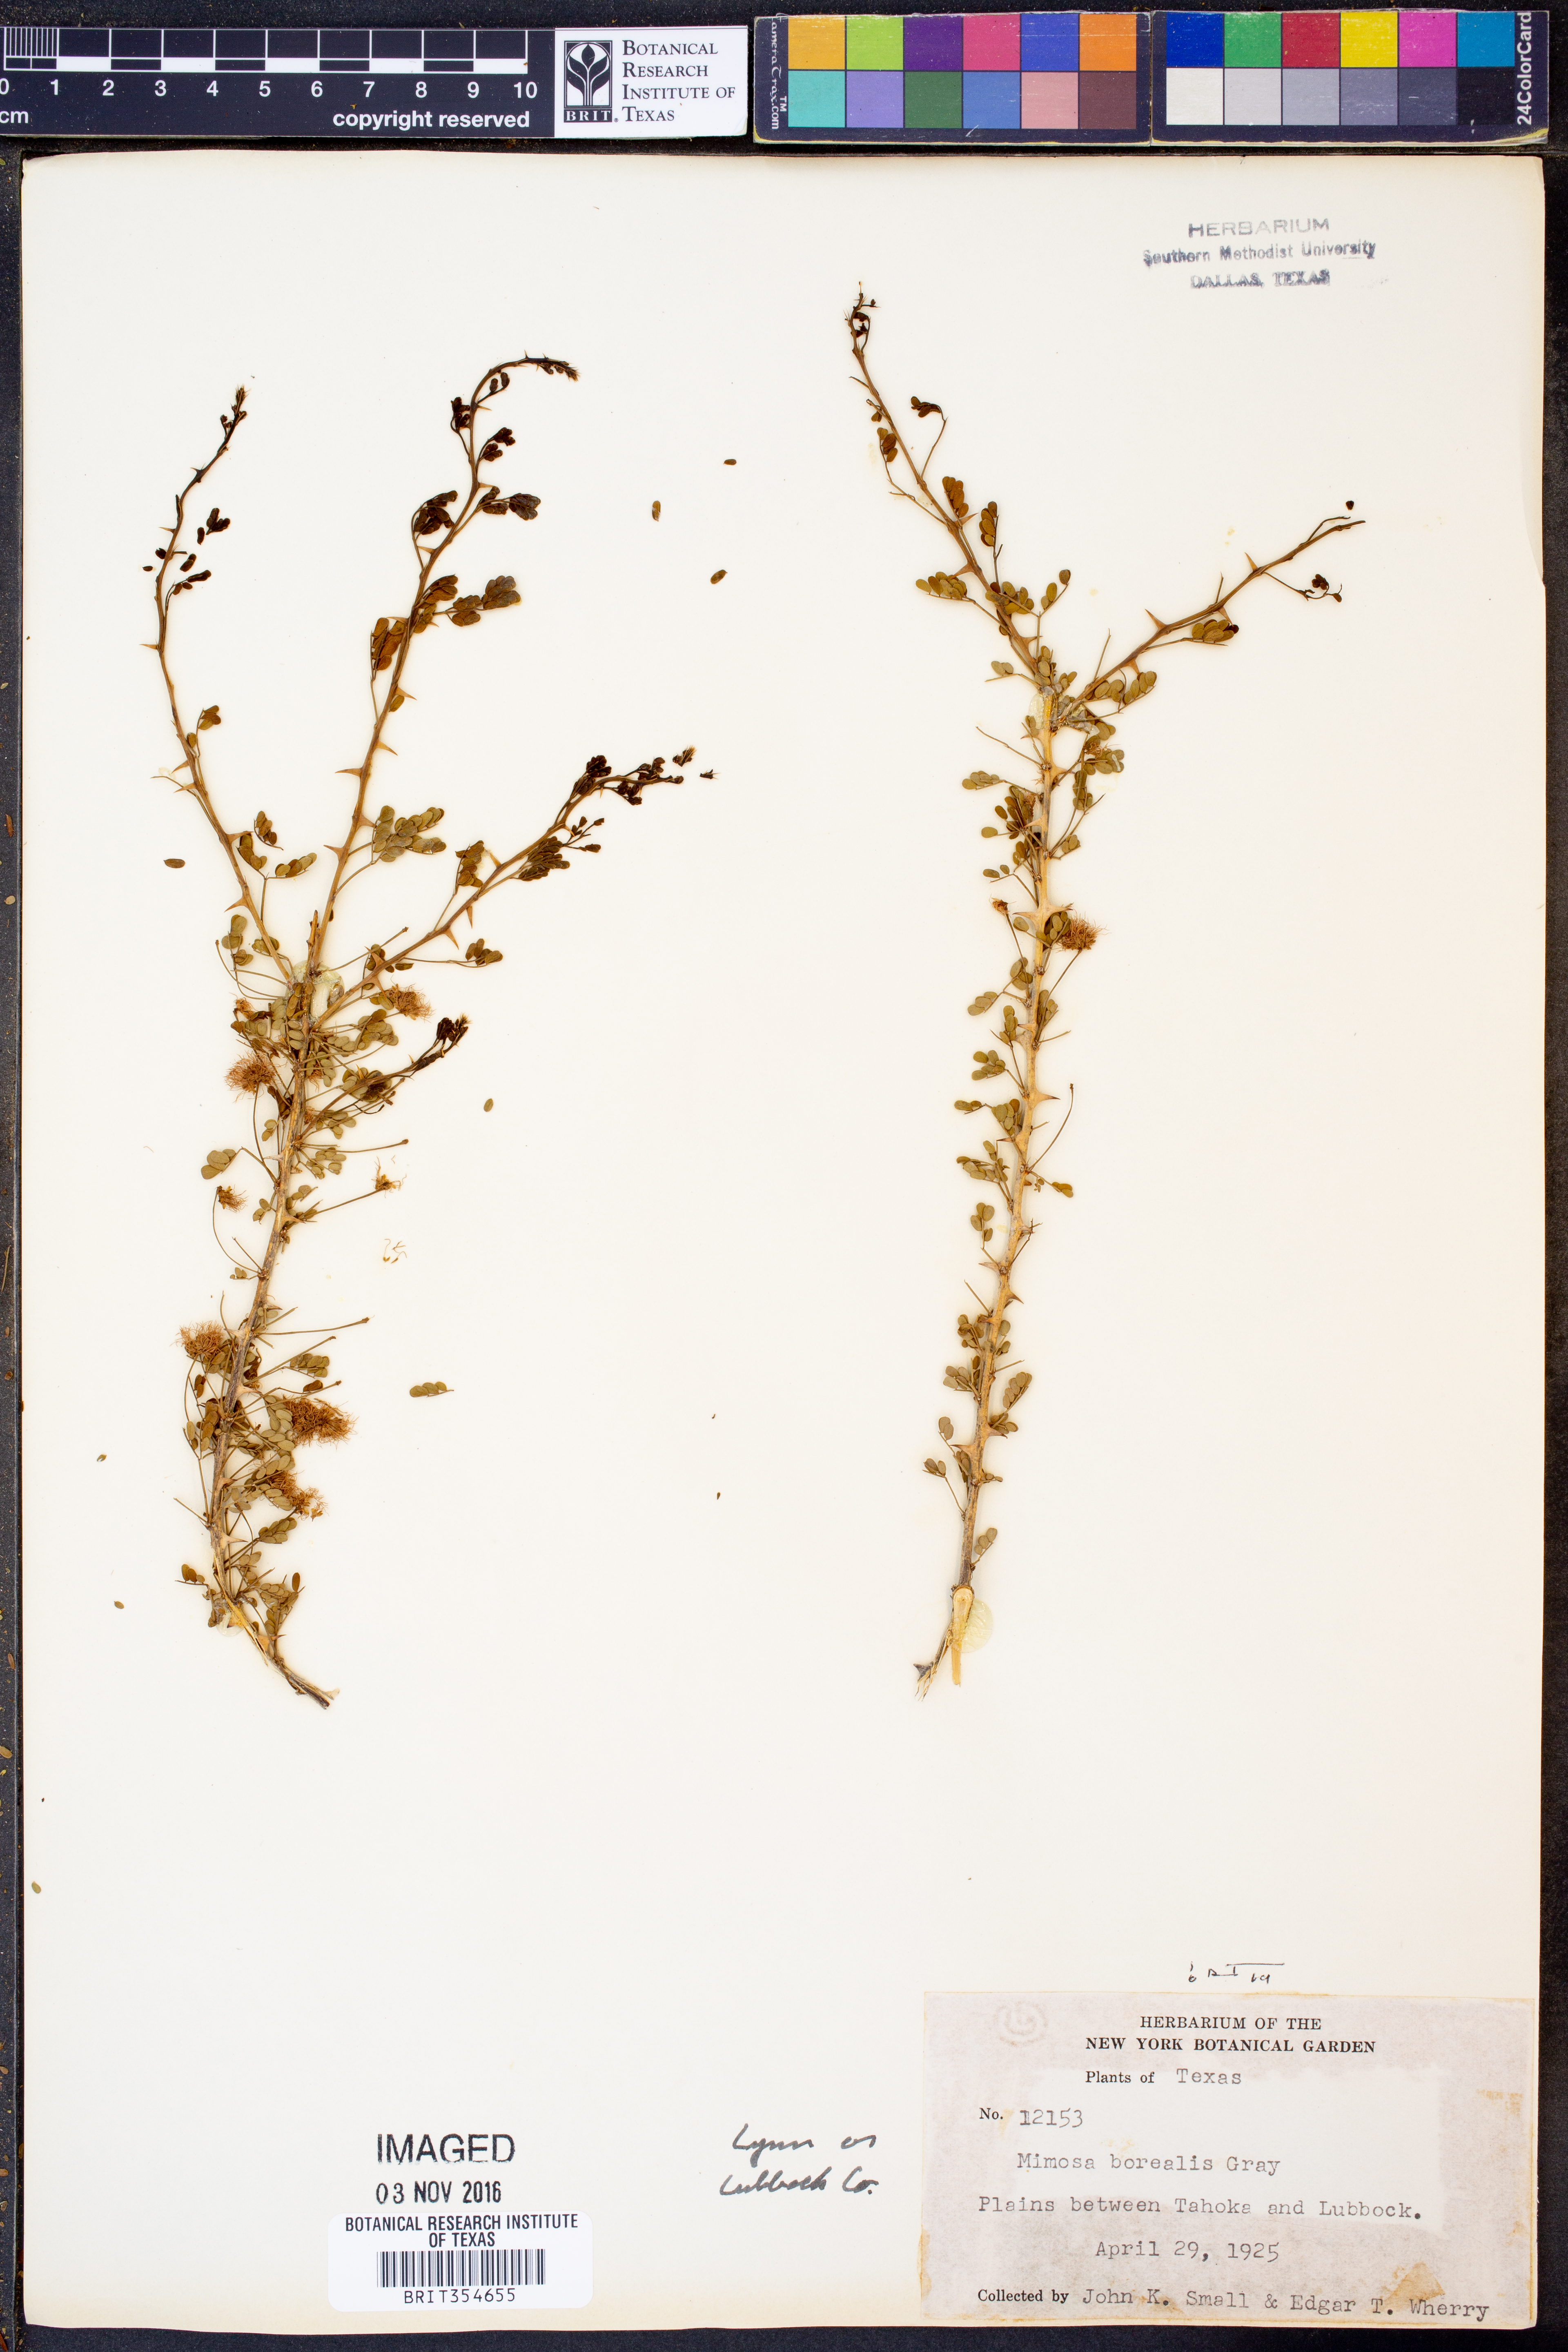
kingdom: Plantae
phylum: Tracheophyta
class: Magnoliopsida
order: Fabales
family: Fabaceae
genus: Mimosa
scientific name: Mimosa borealis
